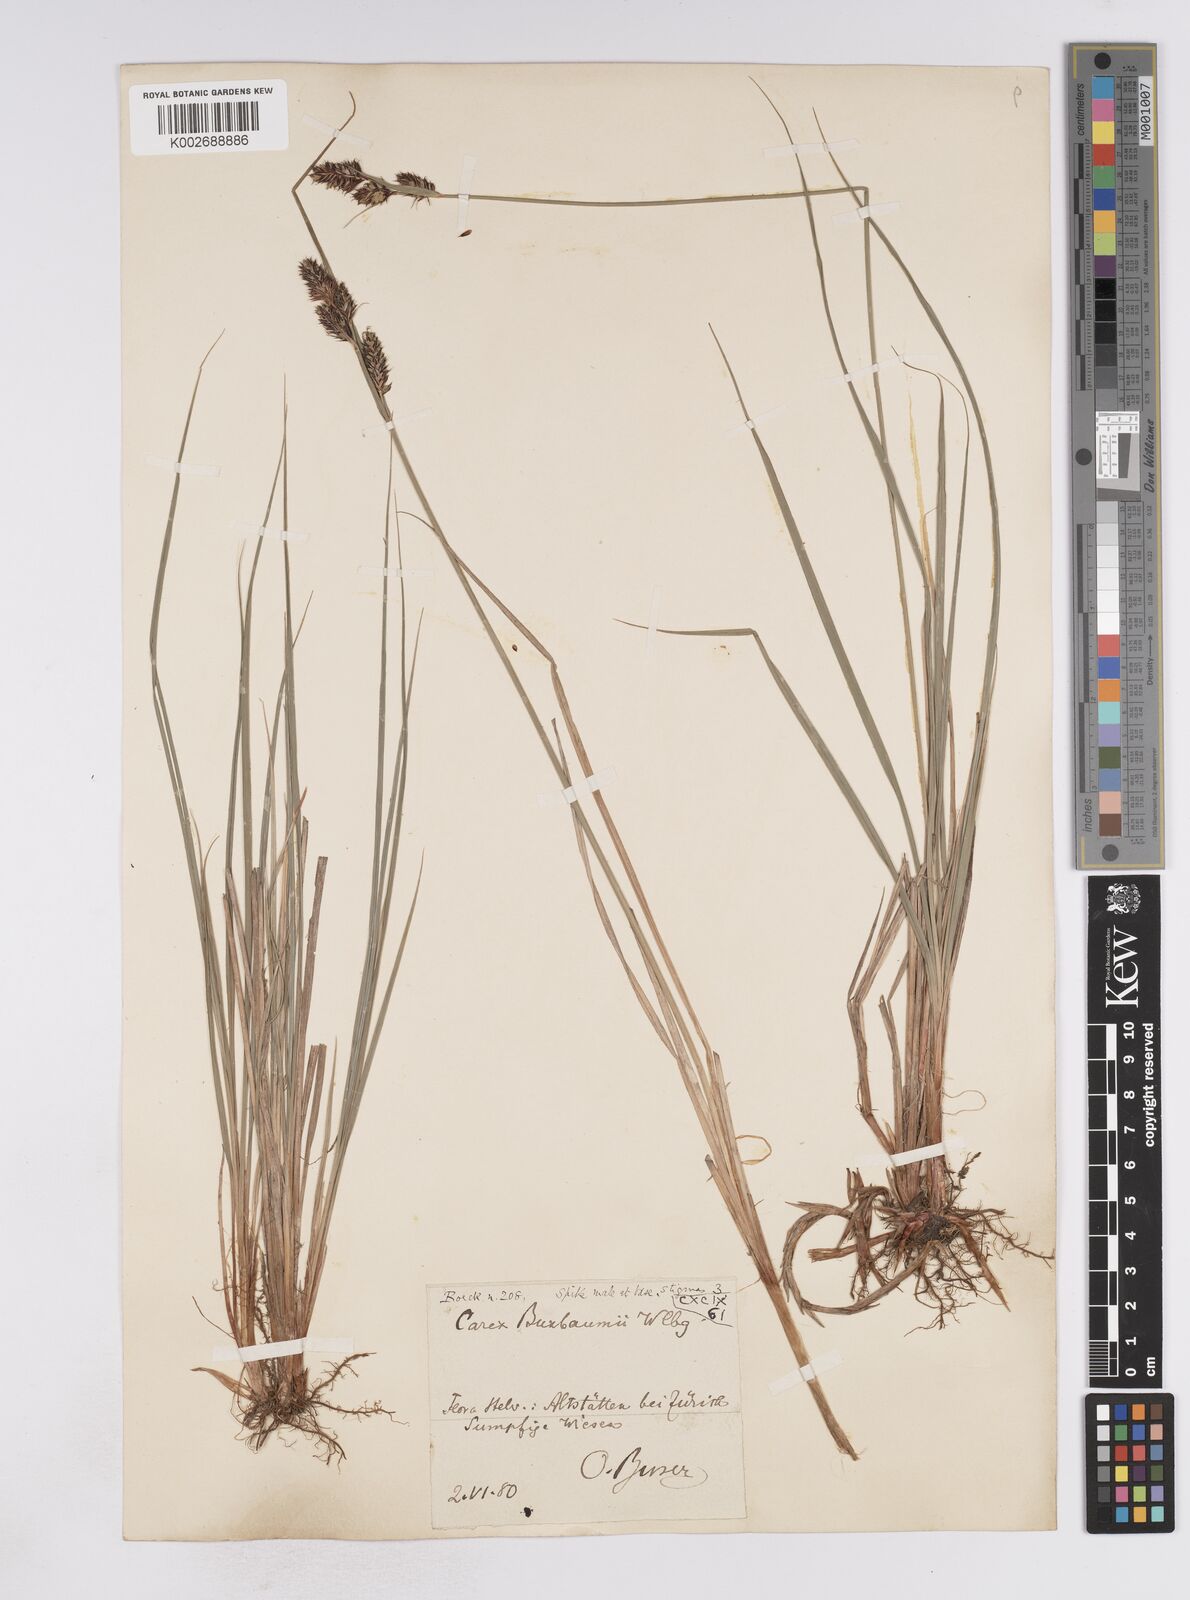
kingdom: Plantae
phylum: Tracheophyta
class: Liliopsida
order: Poales
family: Cyperaceae
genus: Carex
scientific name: Carex buxbaumii
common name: Club sedge
